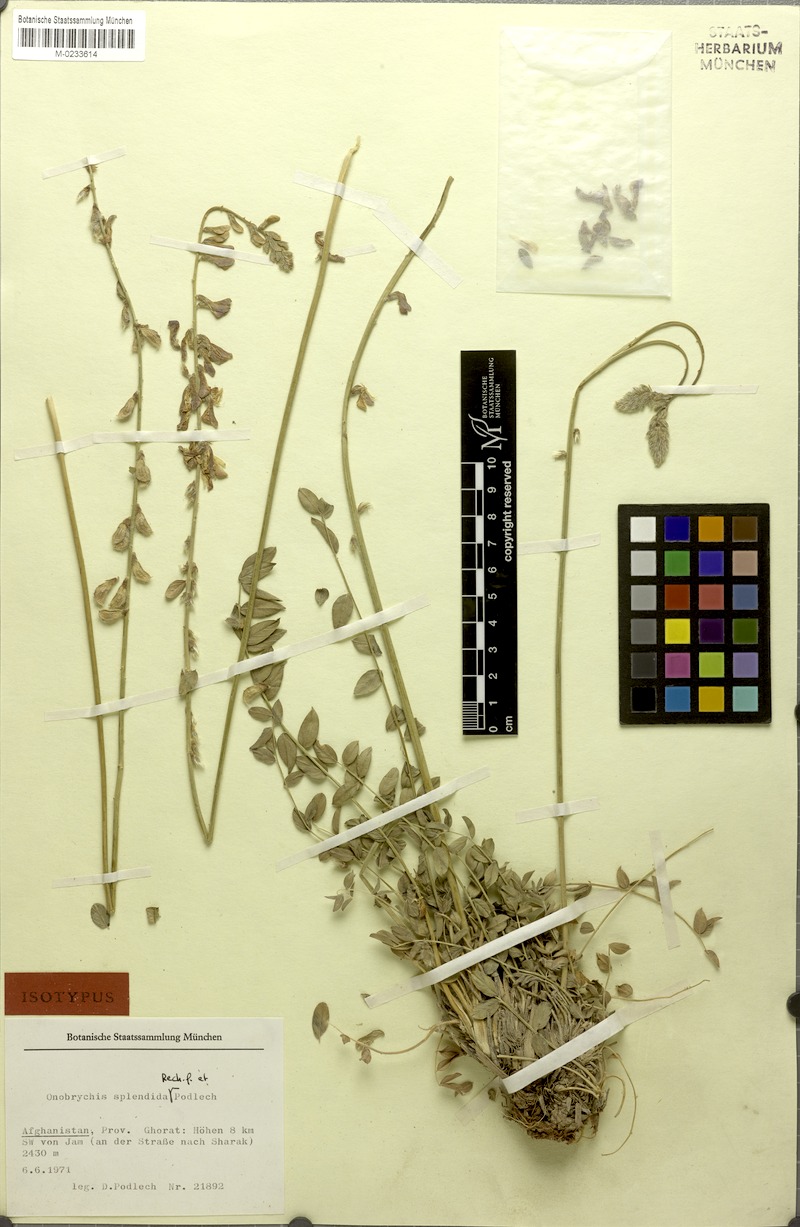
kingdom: Plantae
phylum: Tracheophyta
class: Magnoliopsida
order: Fabales
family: Fabaceae
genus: Onobrychis
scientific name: Onobrychis splendida
